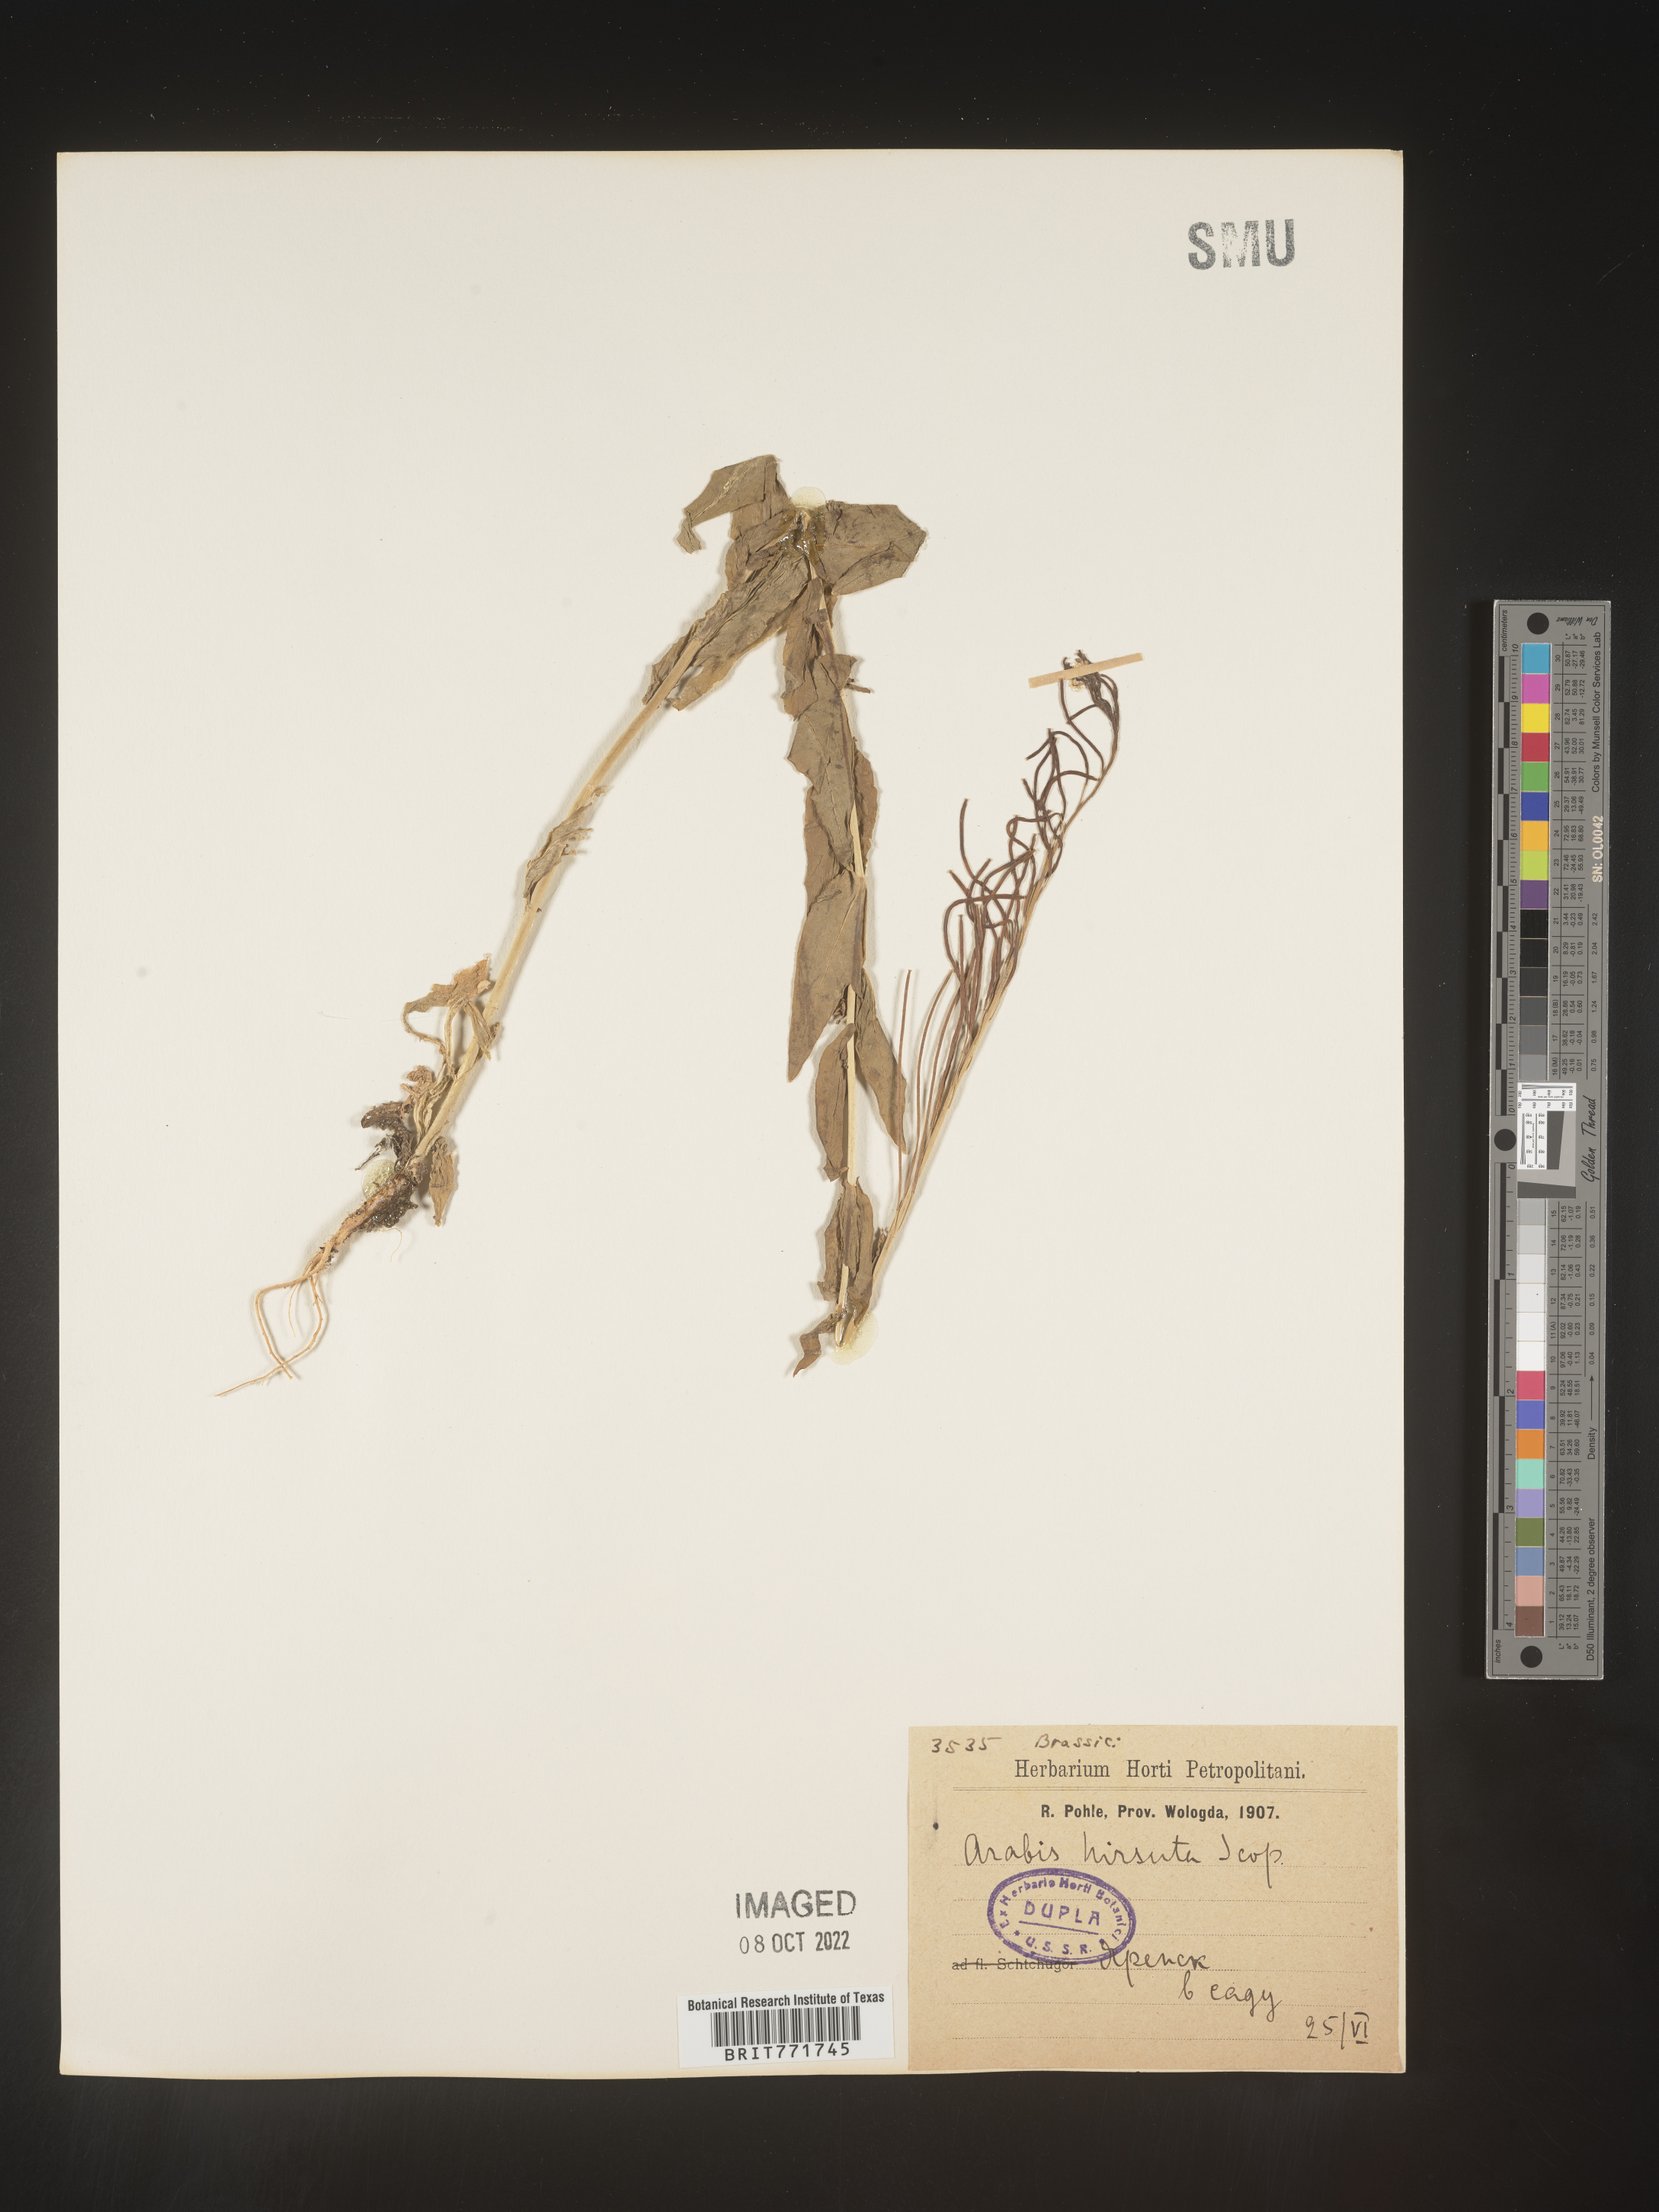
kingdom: Plantae
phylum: Tracheophyta
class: Magnoliopsida
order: Brassicales
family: Brassicaceae
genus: Arabis
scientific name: Arabis
